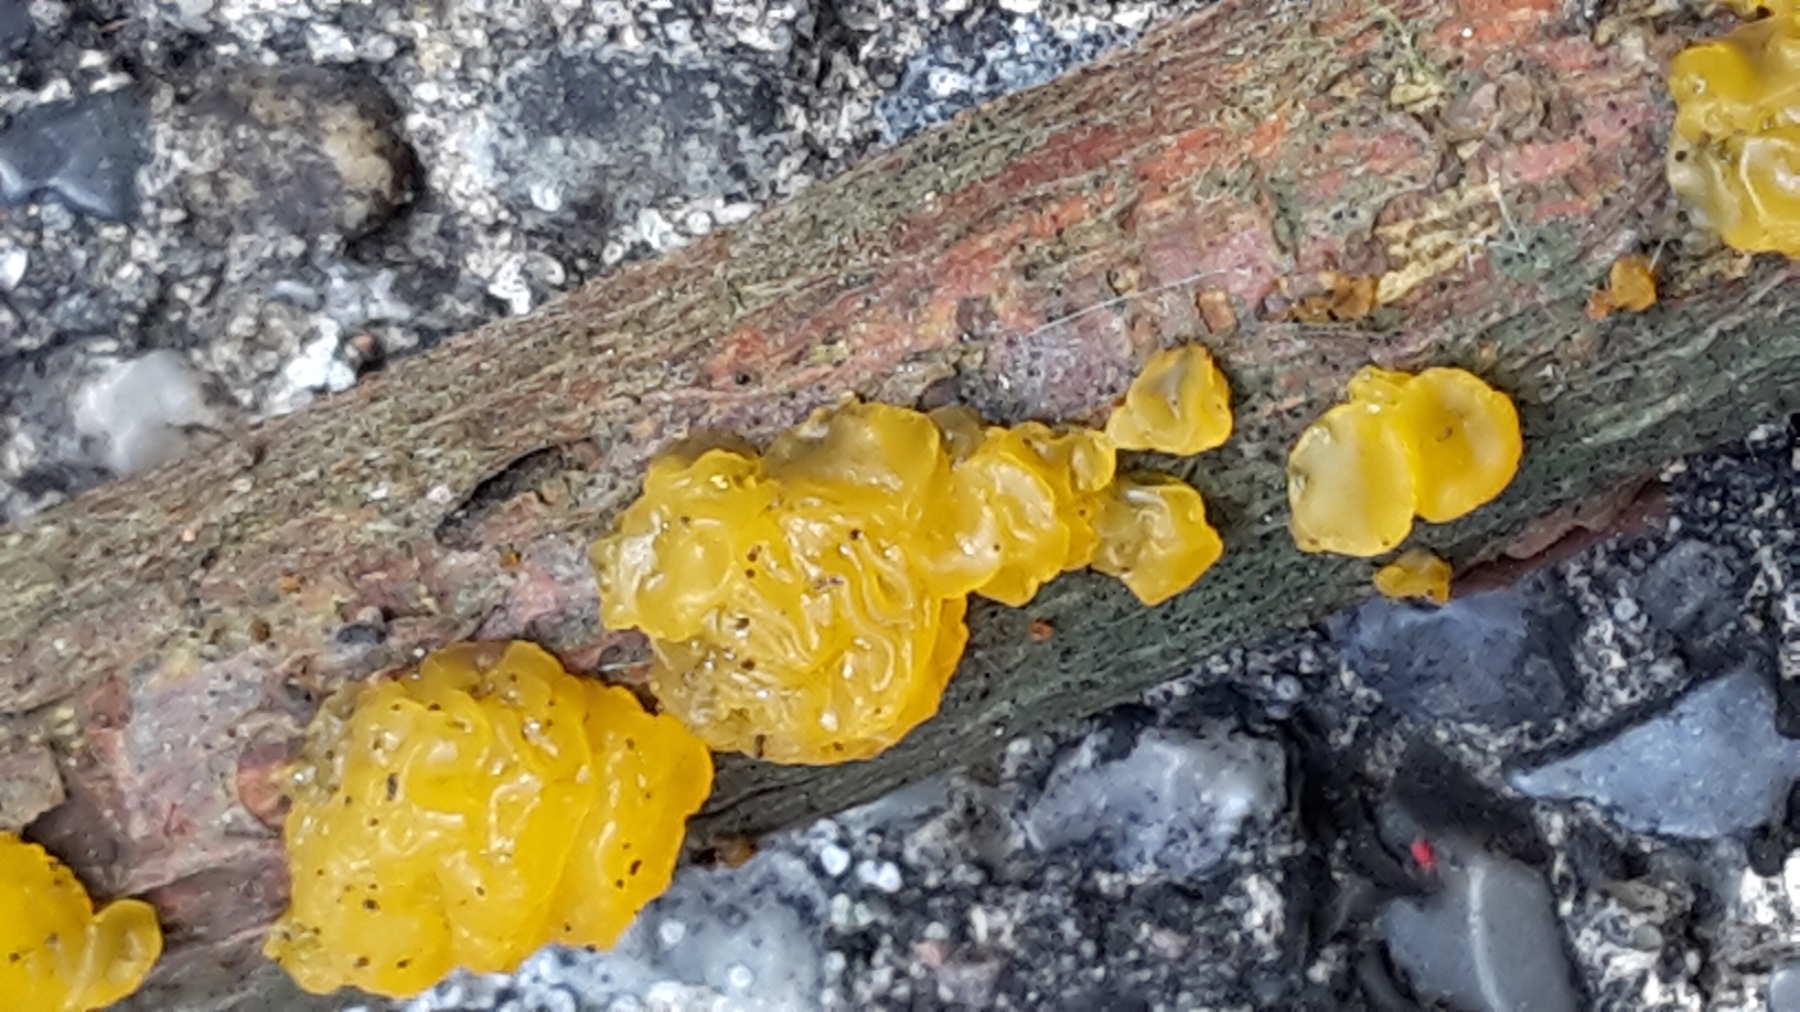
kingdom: Fungi
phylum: Basidiomycota
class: Dacrymycetes
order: Dacrymycetales
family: Dacrymycetaceae
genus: Dacrymyces
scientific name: Dacrymyces lacrymalis
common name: rynket tåresvamp
